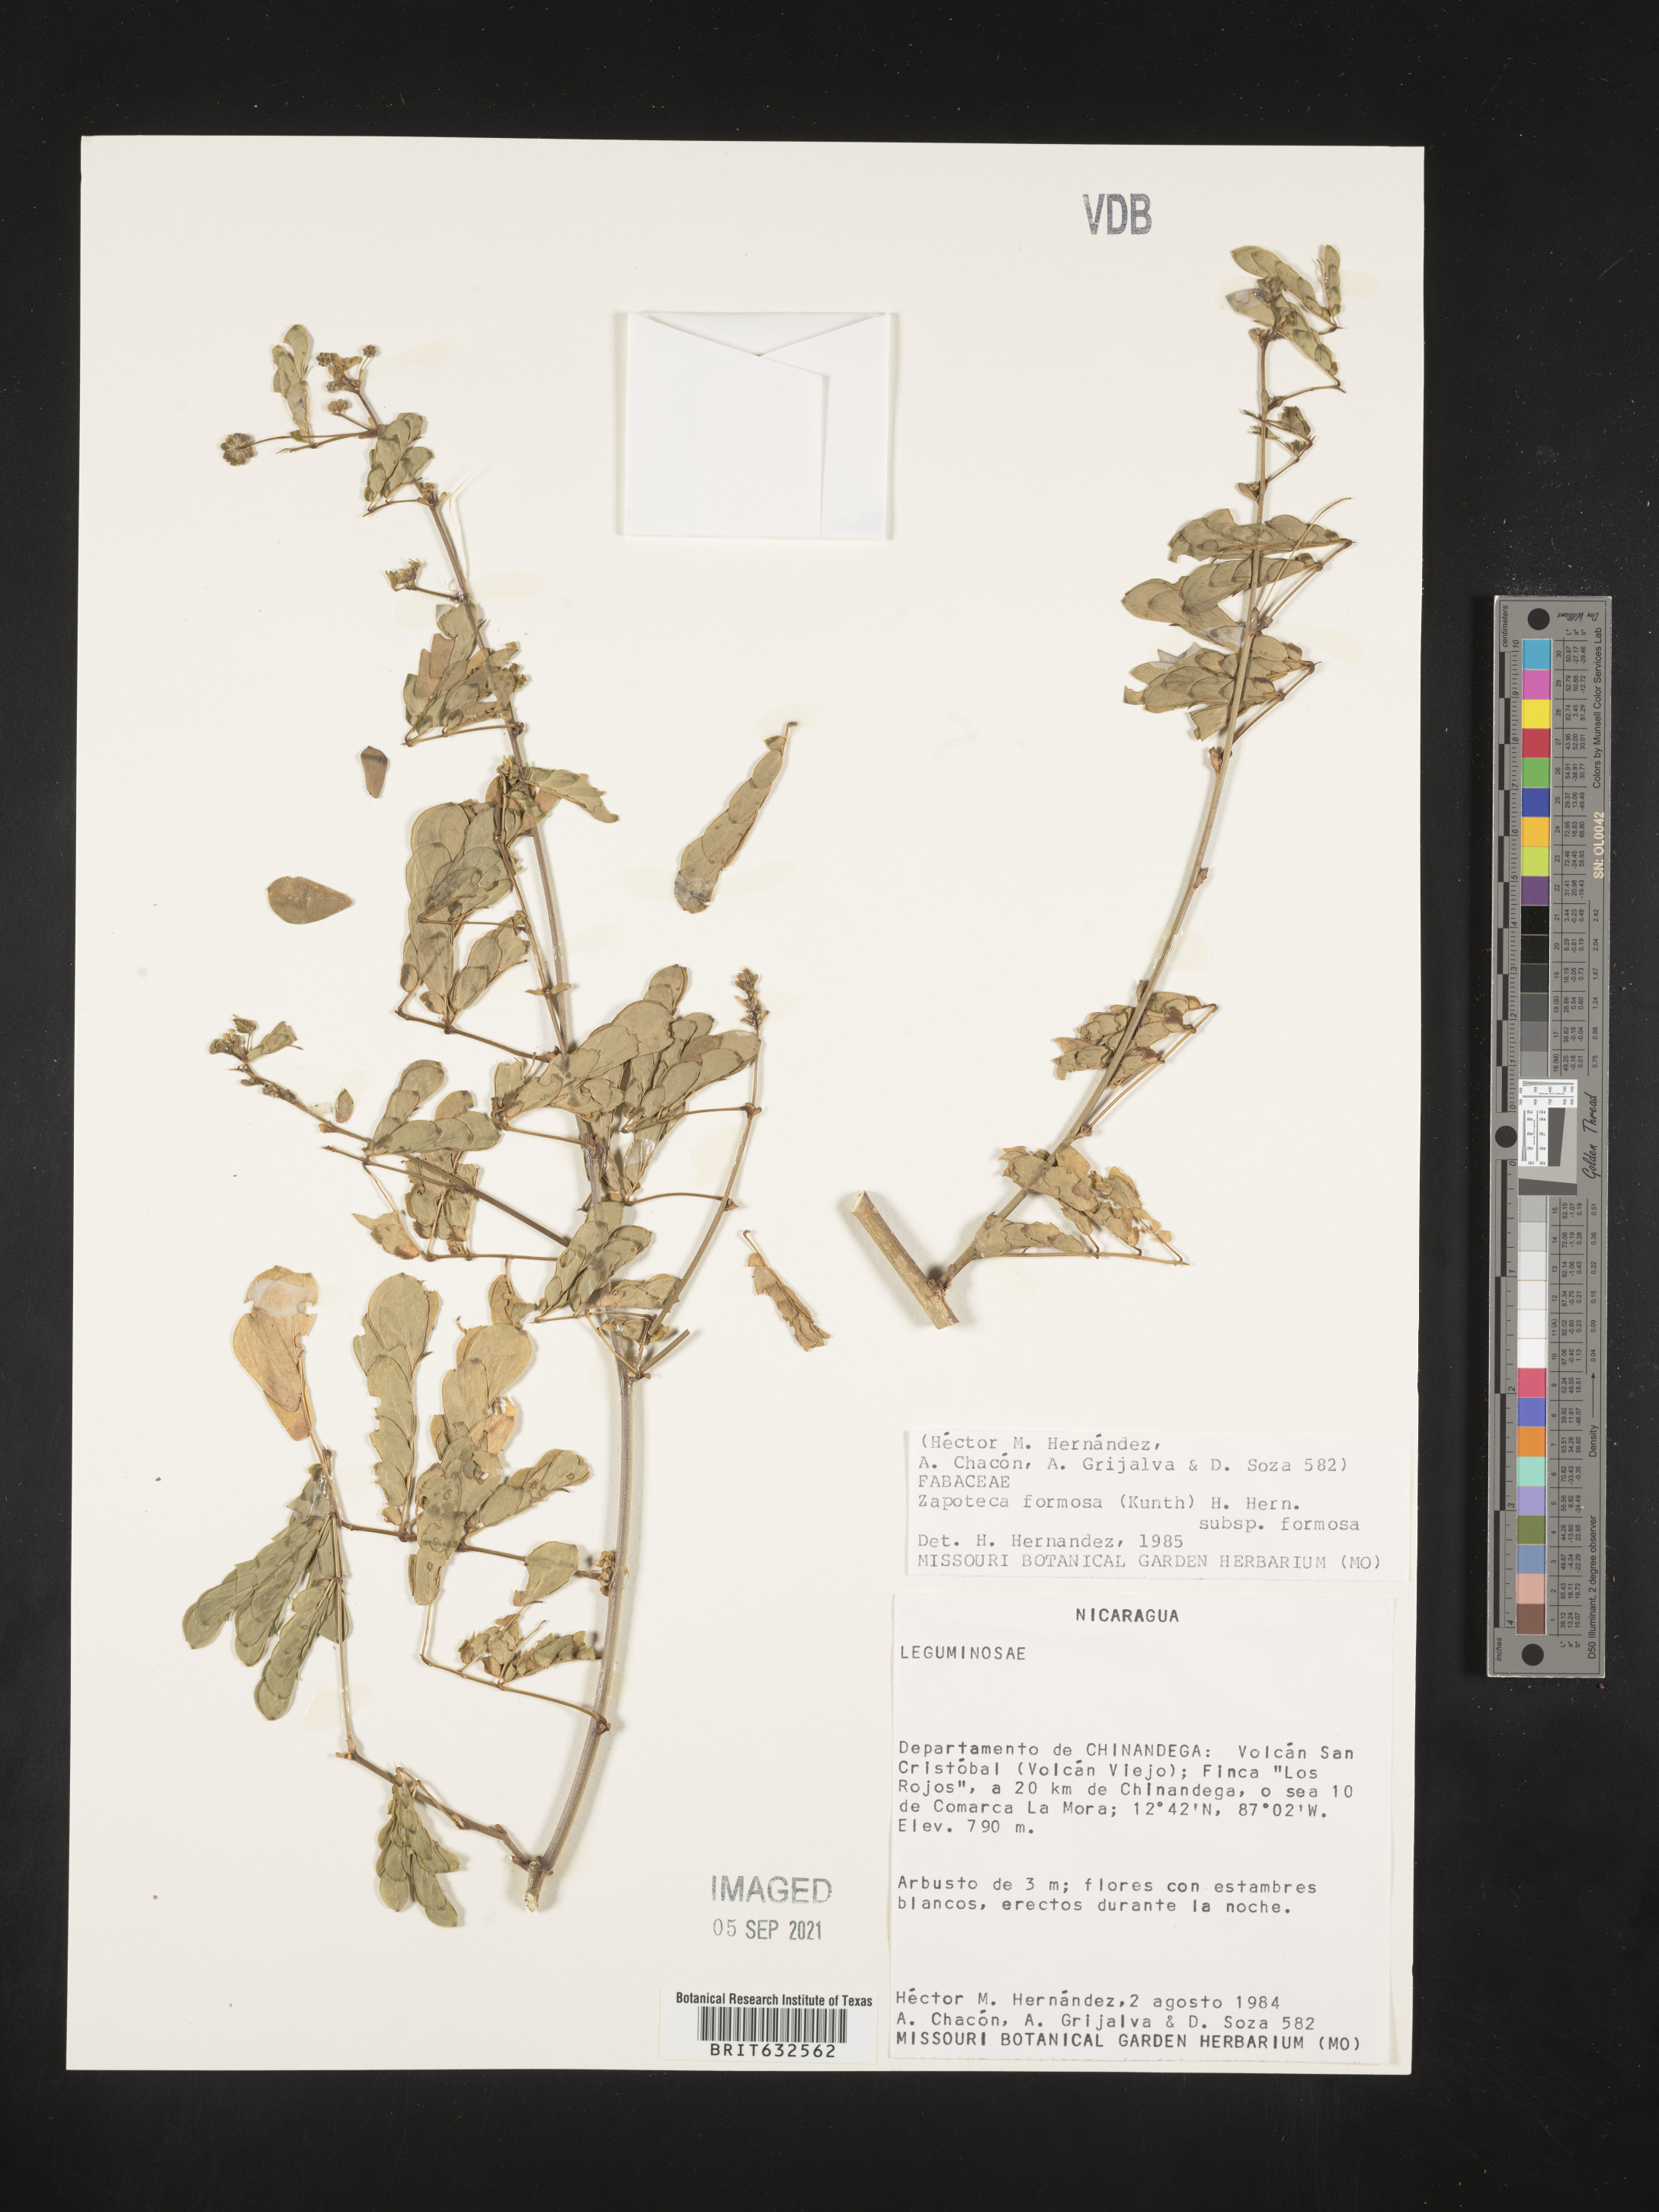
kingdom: Plantae
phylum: Tracheophyta
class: Magnoliopsida
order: Fabales
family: Fabaceae
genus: Zapoteca
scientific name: Zapoteca
